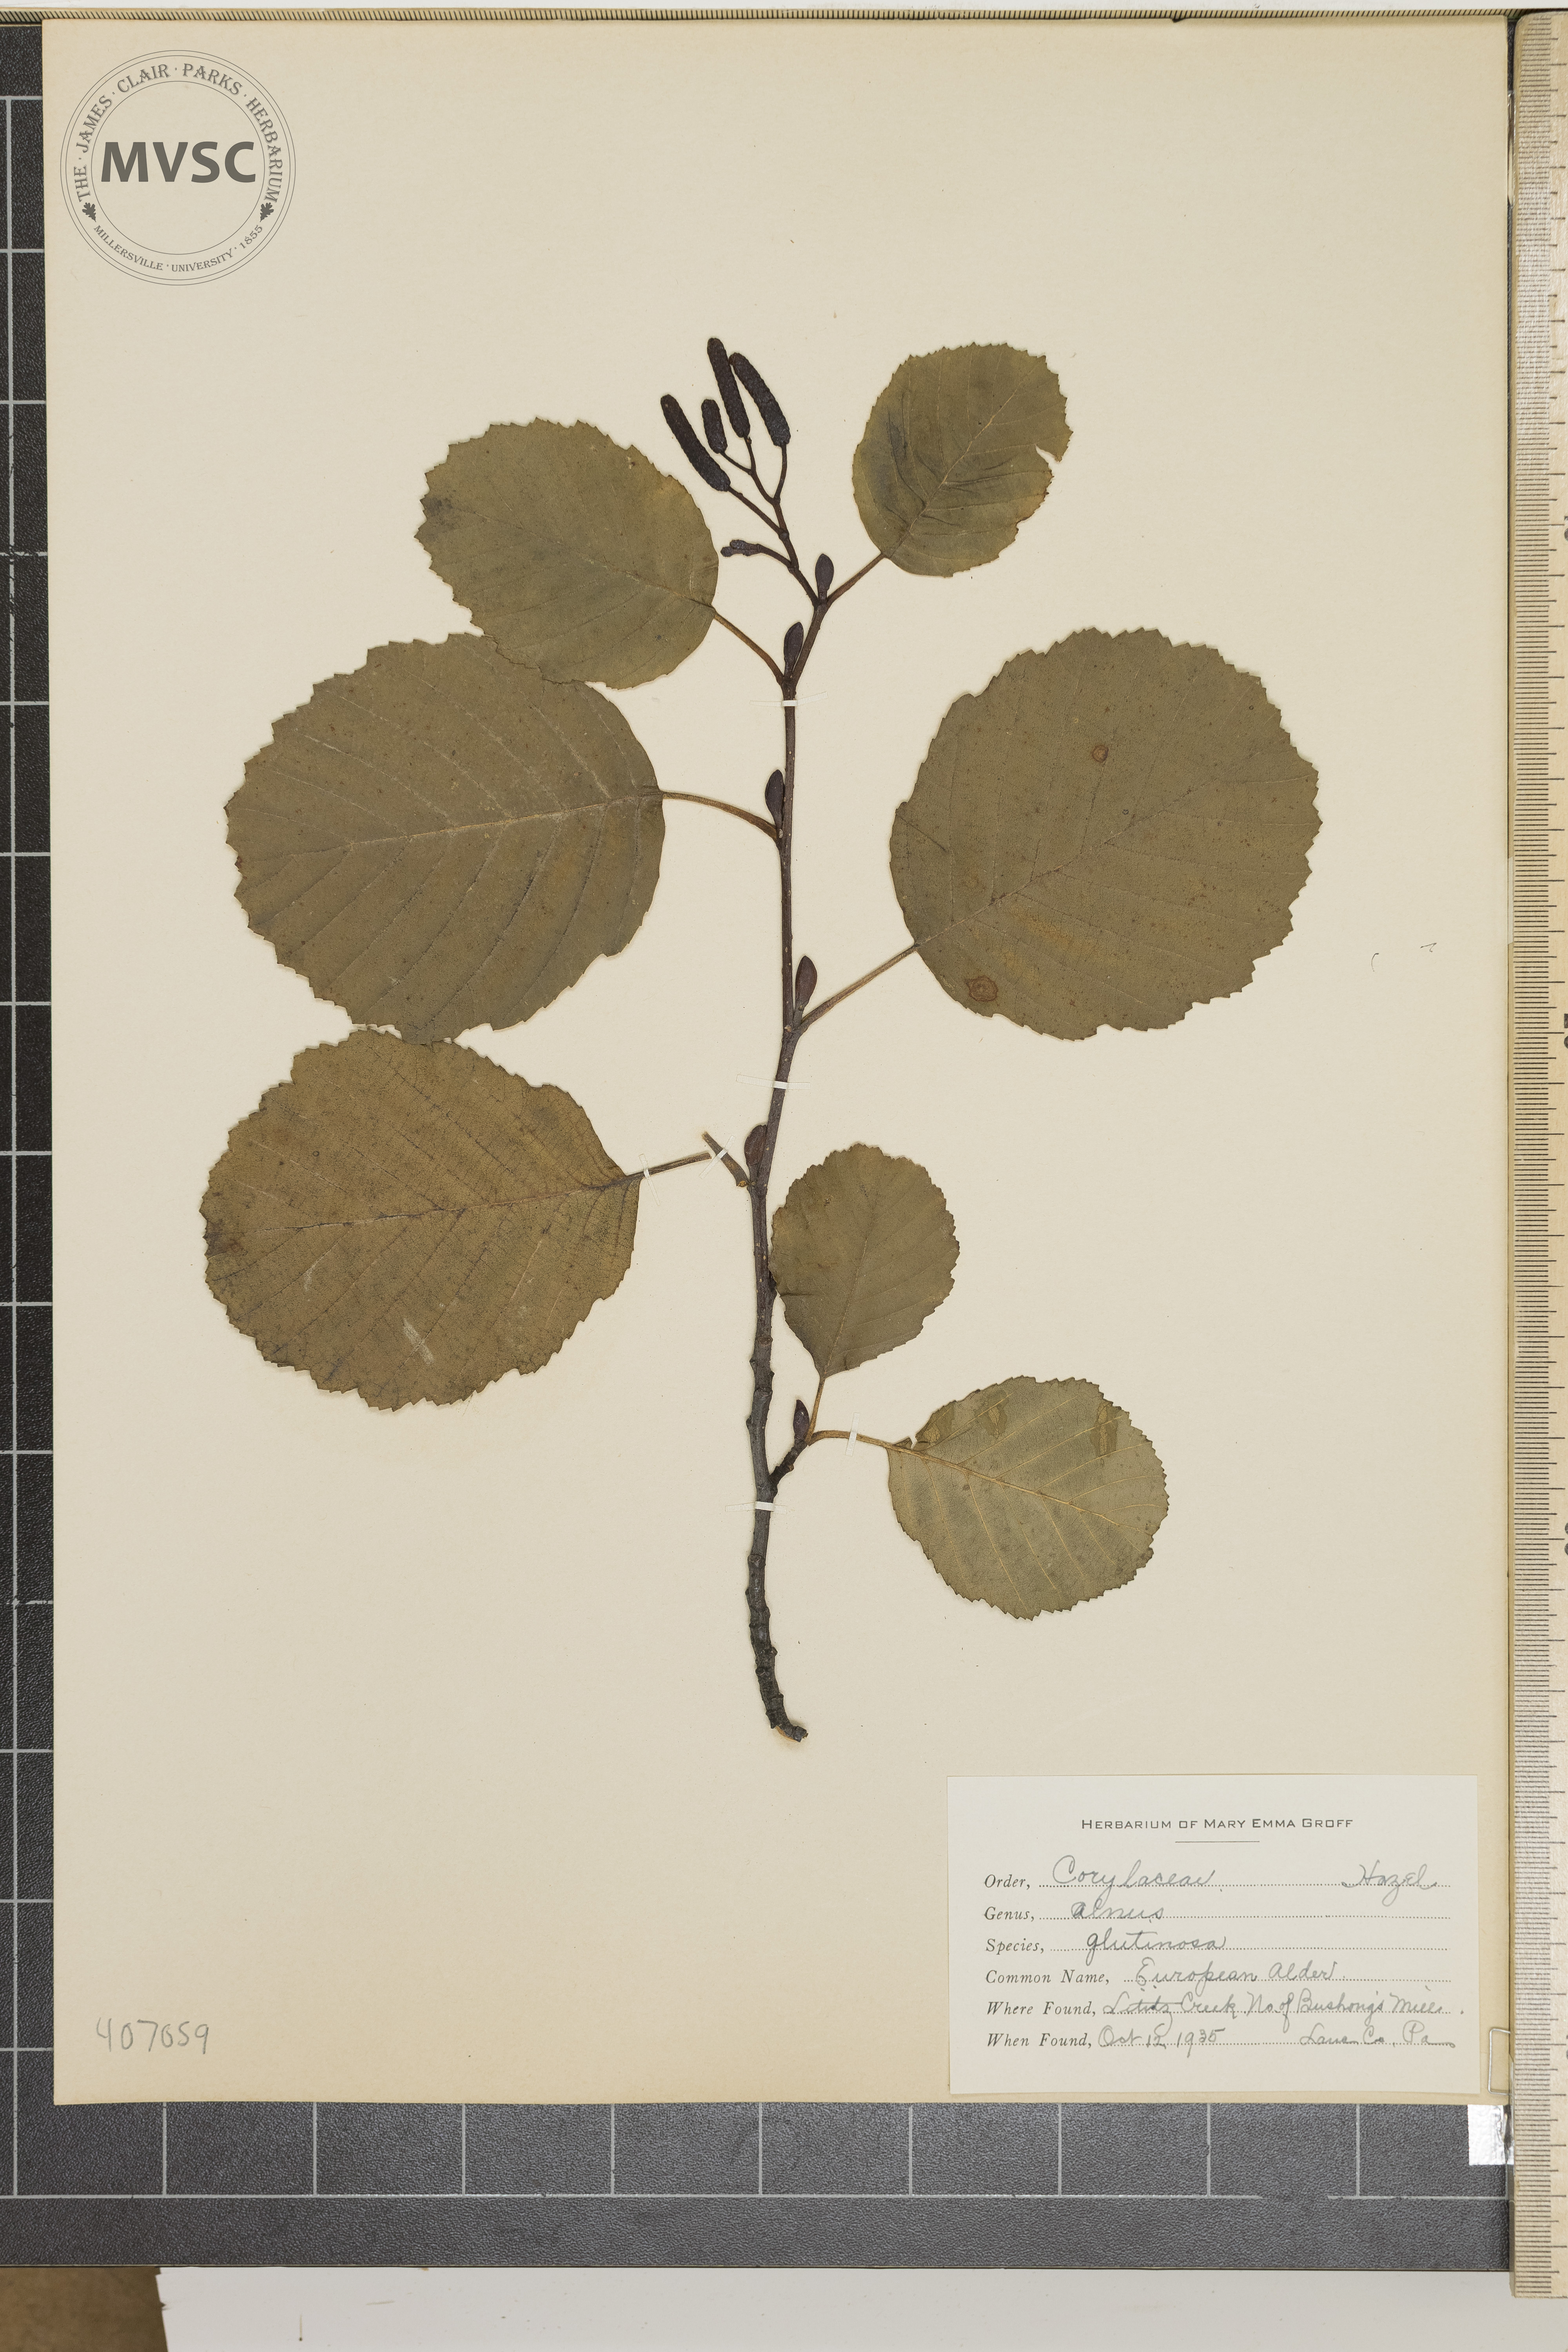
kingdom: Plantae
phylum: Tracheophyta
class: Magnoliopsida
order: Fagales
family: Betulaceae
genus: Alnus
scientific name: Alnus glutinosa
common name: European Alder
